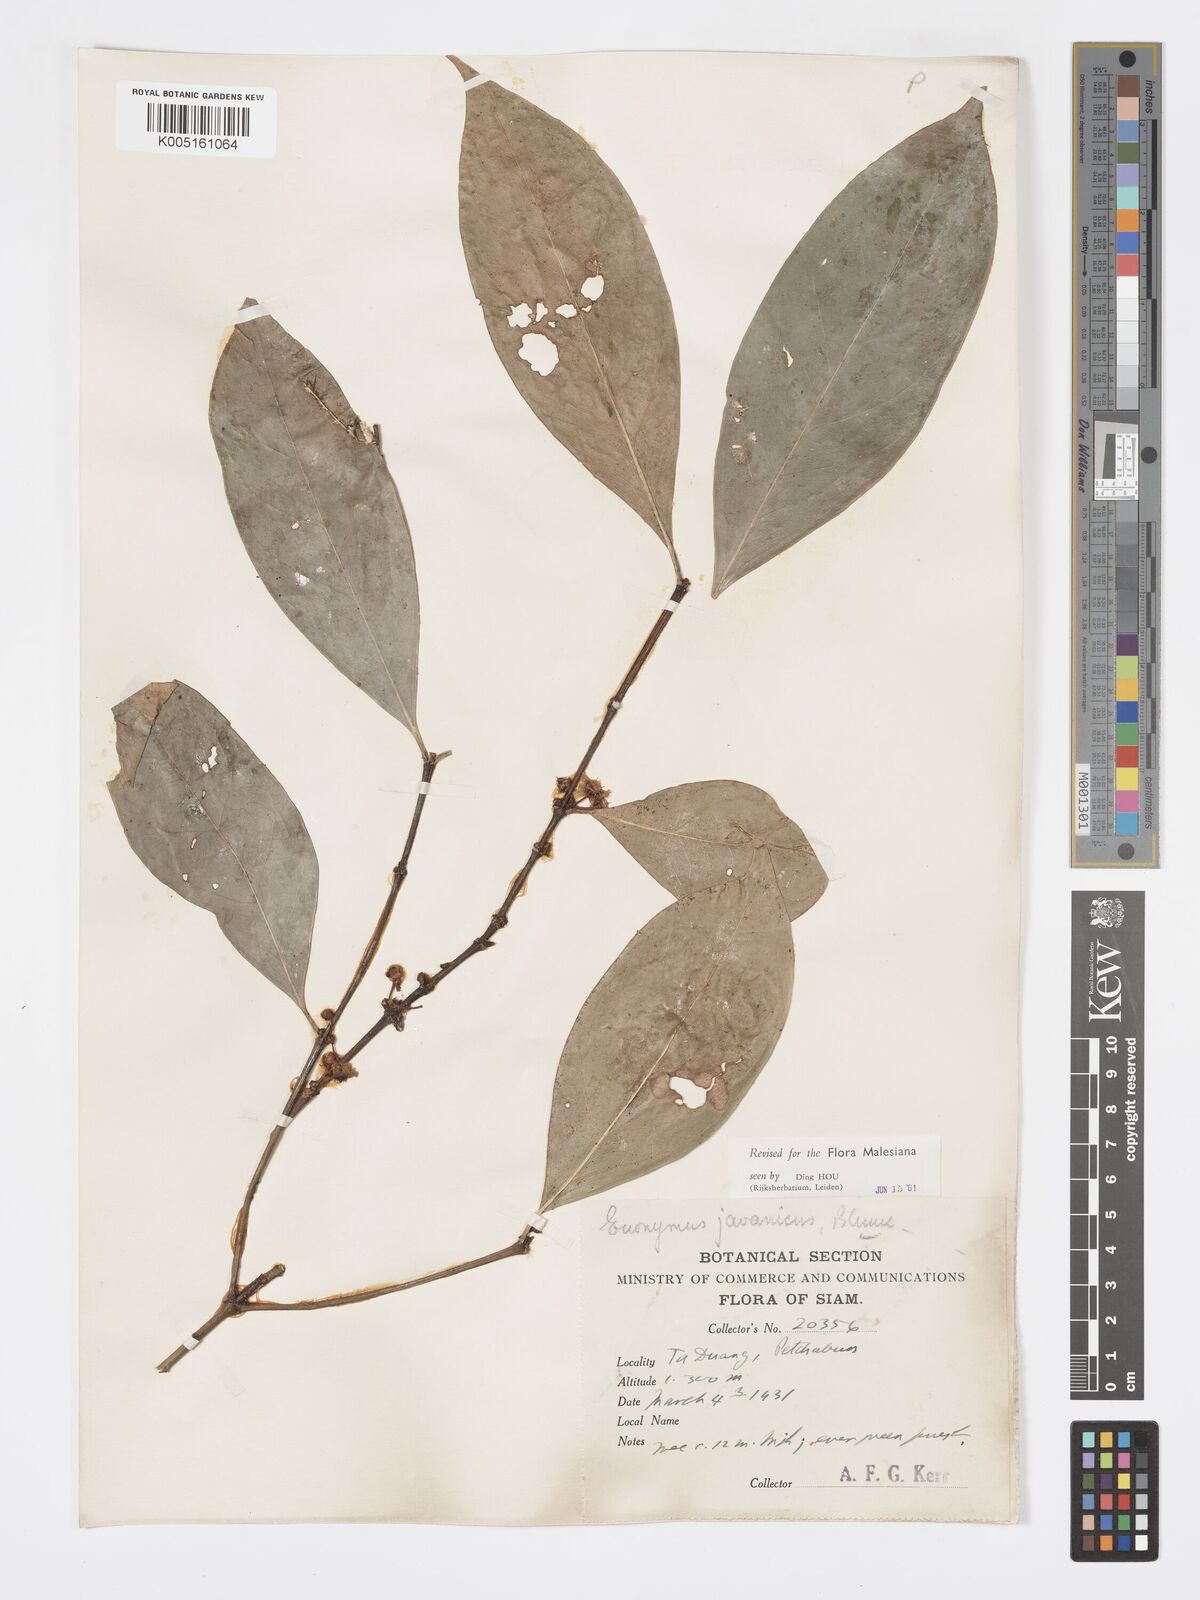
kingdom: Plantae
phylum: Tracheophyta
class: Magnoliopsida
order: Celastrales
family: Celastraceae
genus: Euonymus
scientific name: Euonymus indicus
